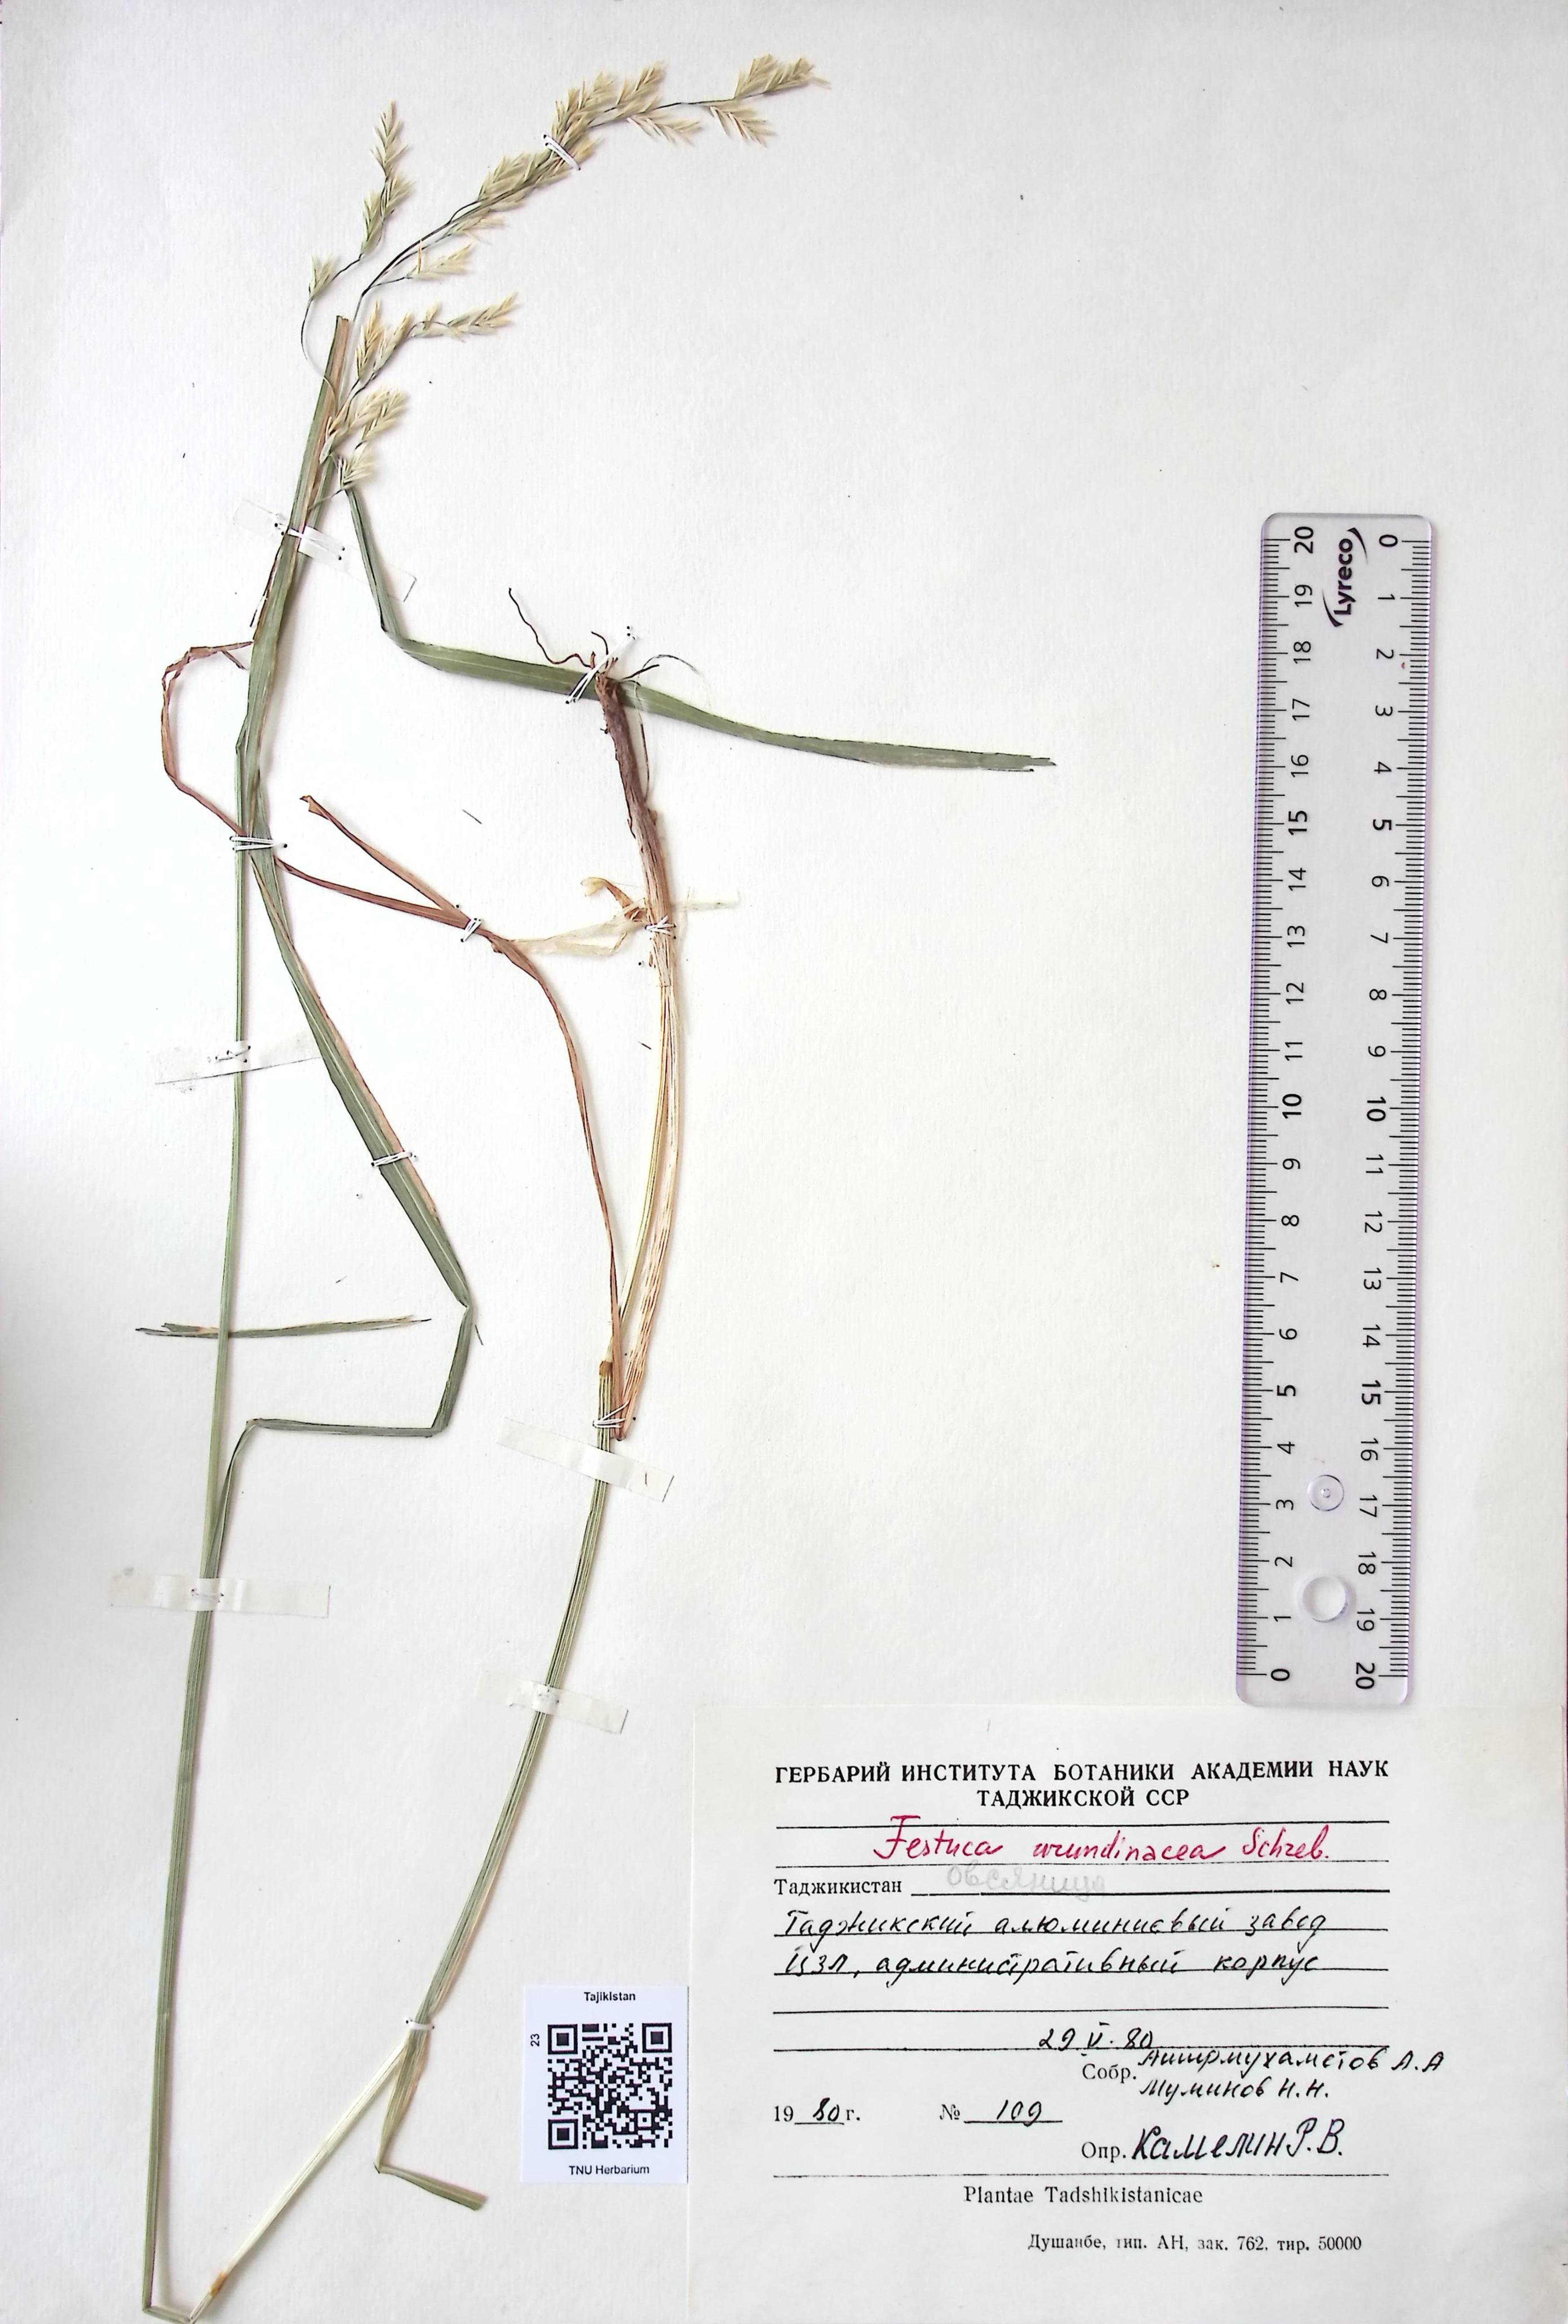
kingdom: Plantae
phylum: Tracheophyta
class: Liliopsida
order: Poales
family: Poaceae
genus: Lolium
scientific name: Lolium arundinaceum
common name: Reed fescue
